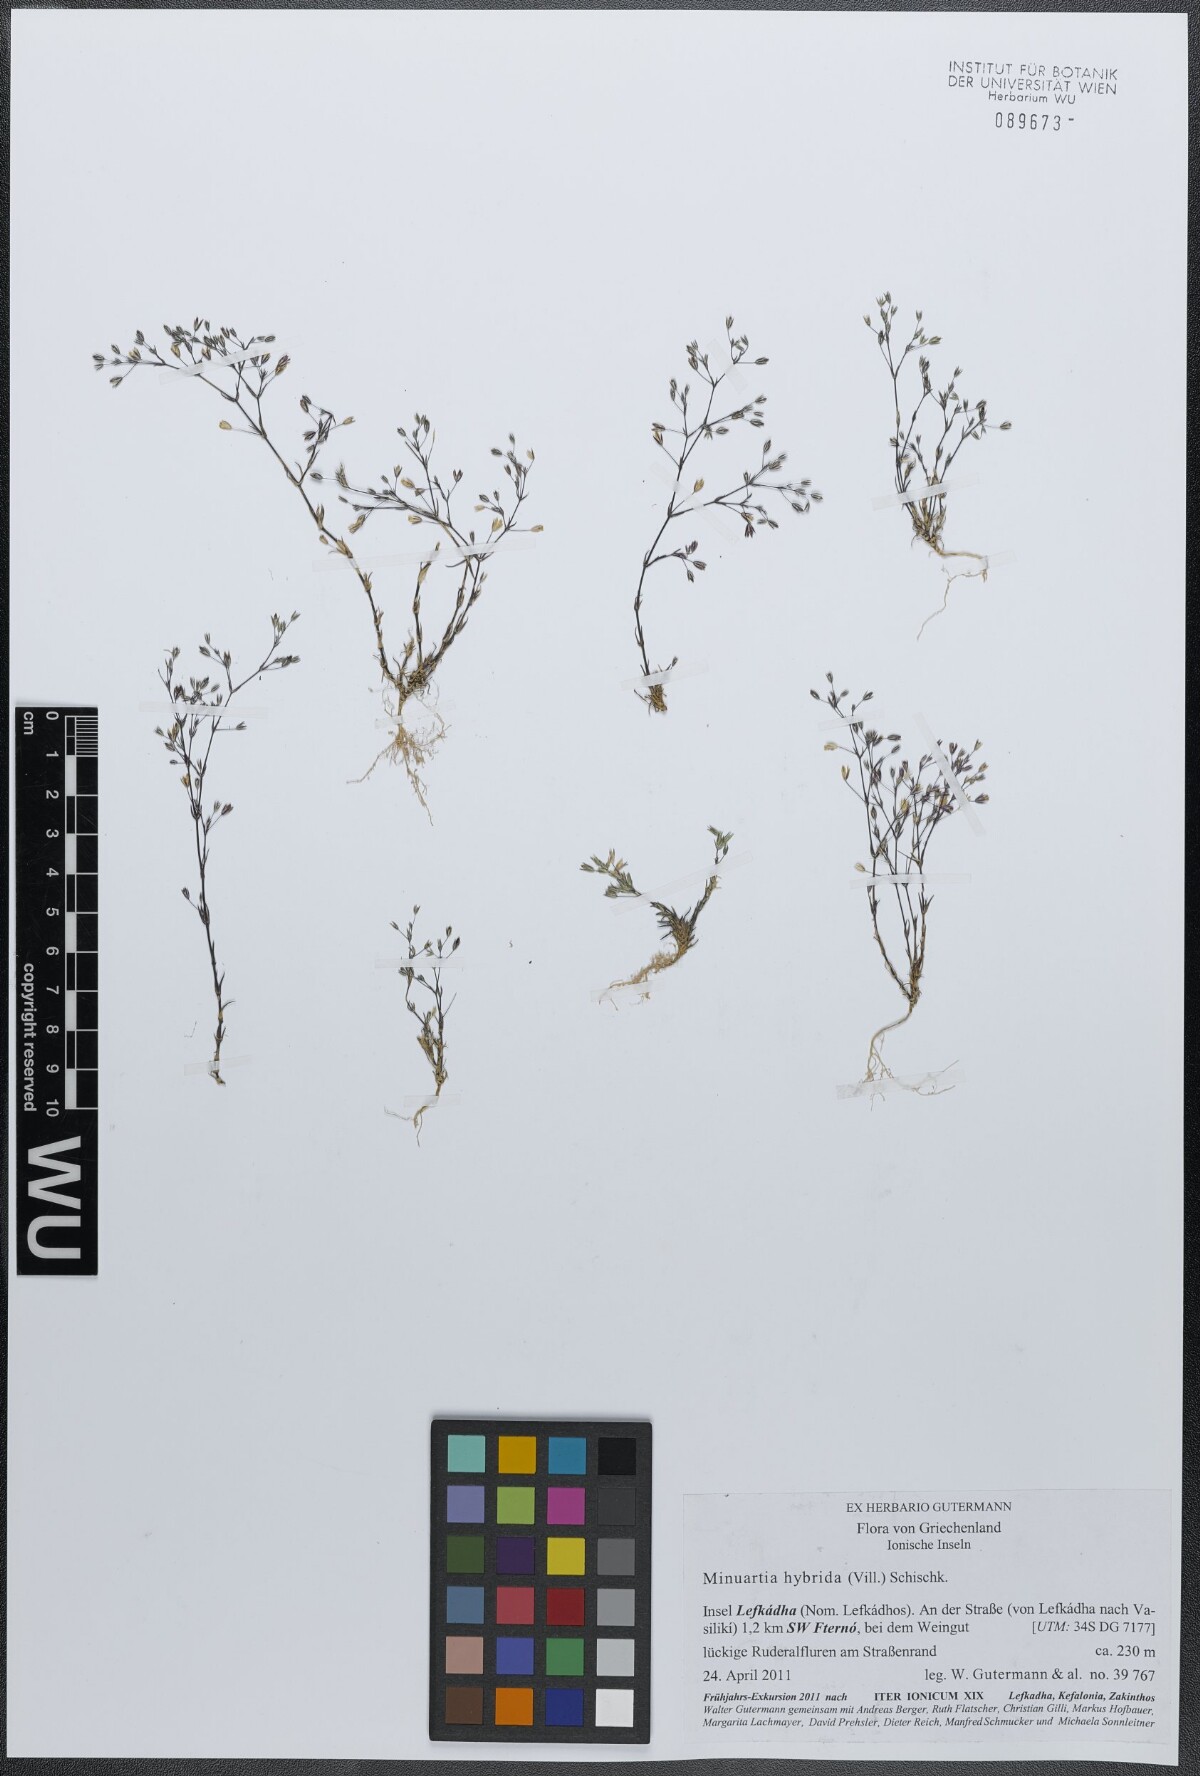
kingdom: Plantae
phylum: Tracheophyta
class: Magnoliopsida
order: Caryophyllales
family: Caryophyllaceae
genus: Sabulina
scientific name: Sabulina tenuifolia
